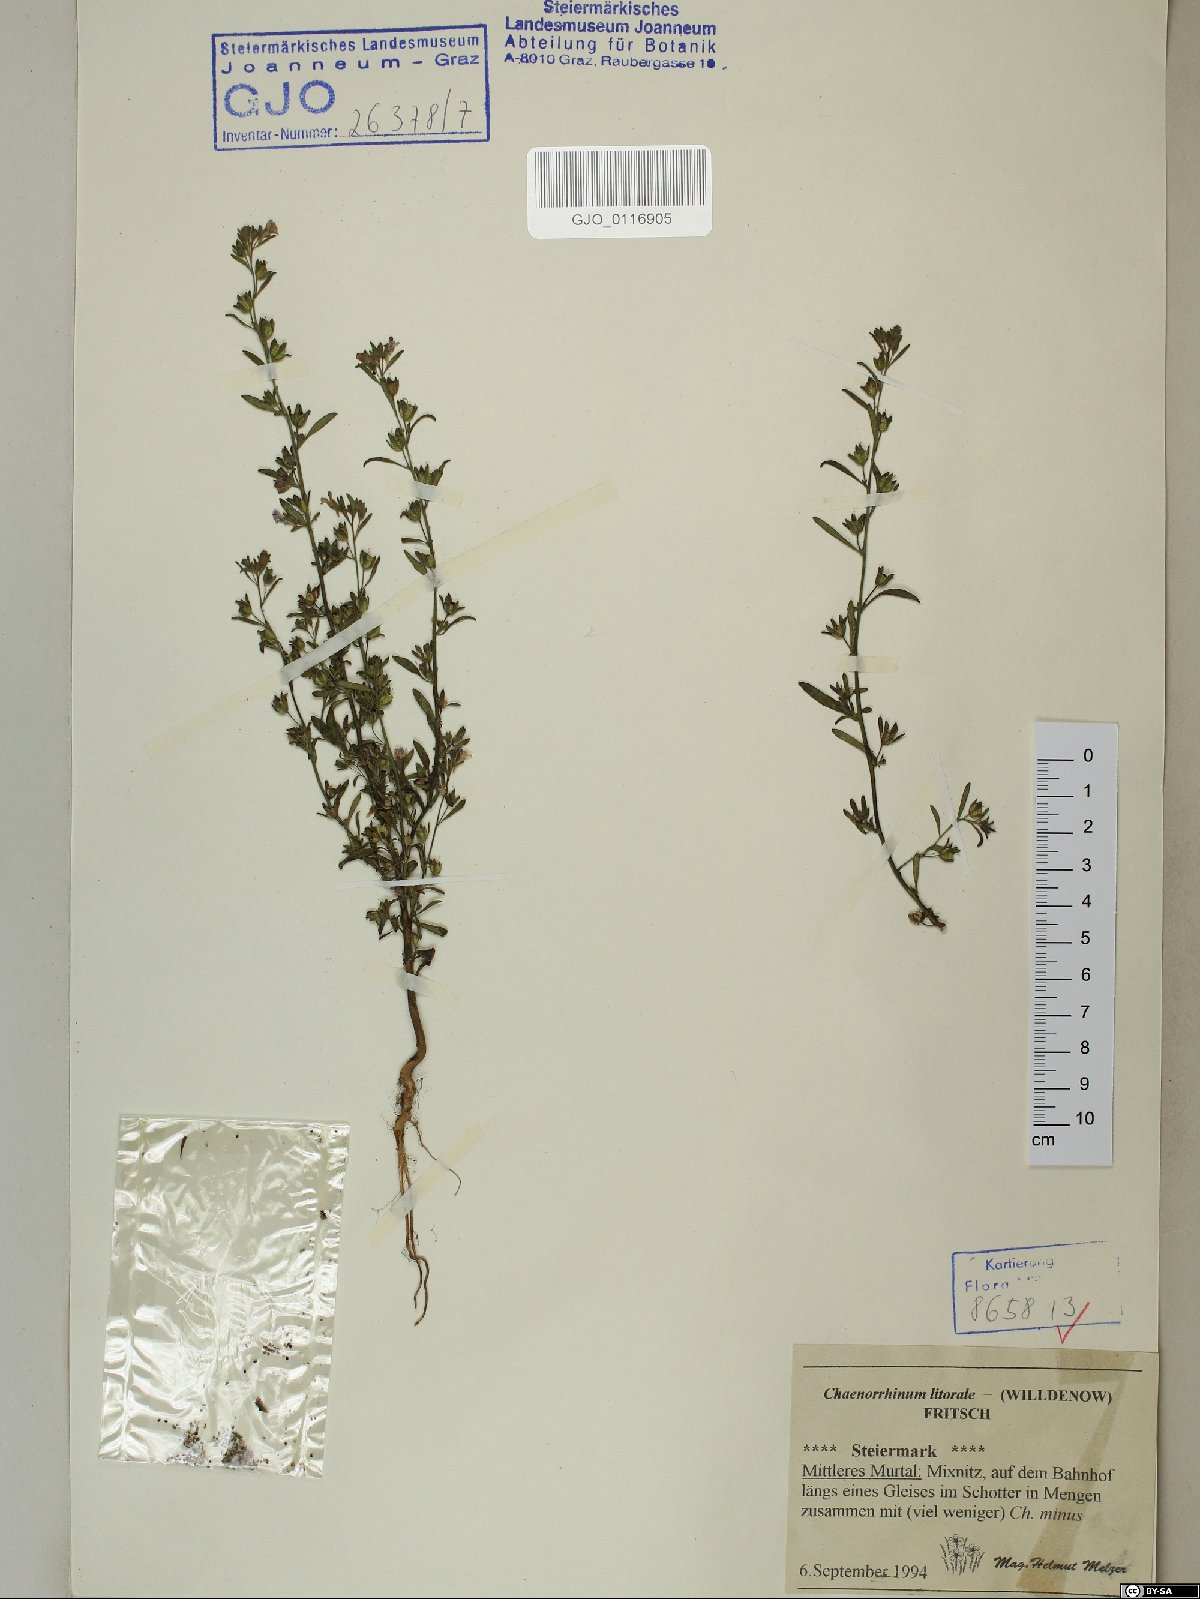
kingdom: Plantae
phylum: Tracheophyta
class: Magnoliopsida
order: Lamiales
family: Plantaginaceae
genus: Chaenorhinum
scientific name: Chaenorhinum litorale
